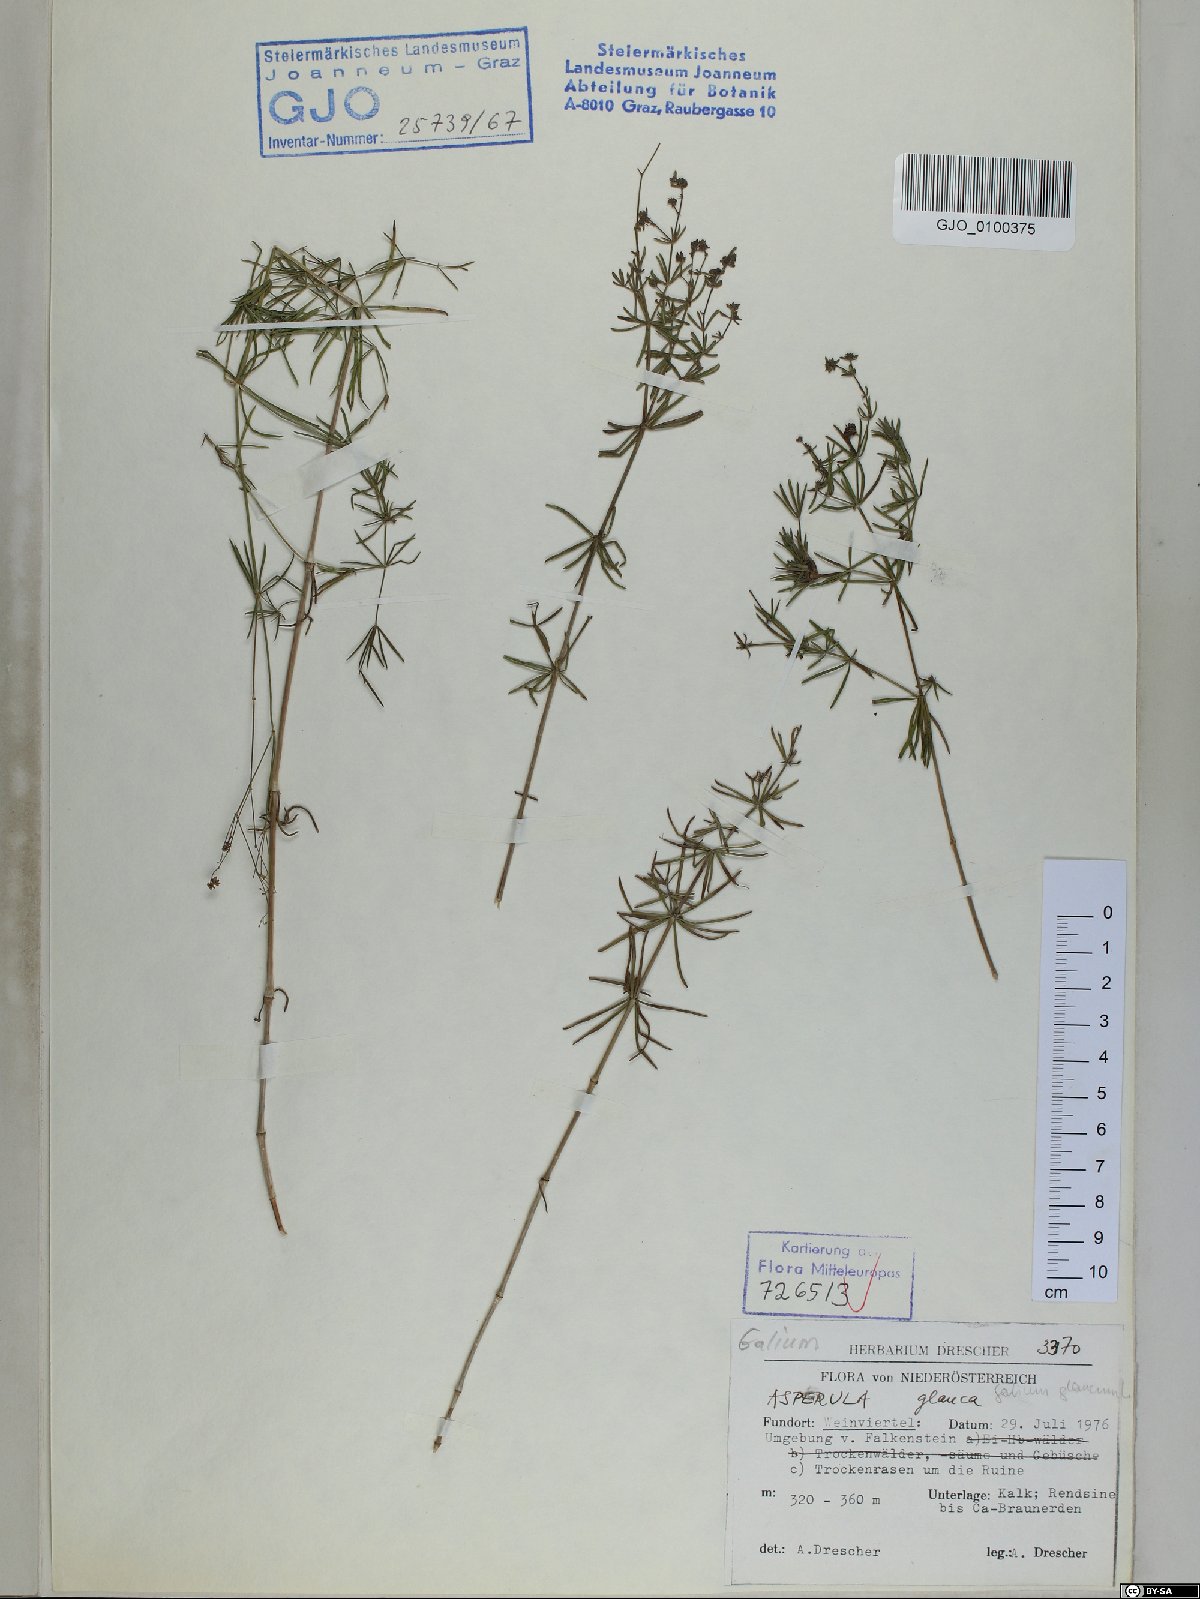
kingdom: Plantae
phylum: Tracheophyta
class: Magnoliopsida
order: Gentianales
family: Rubiaceae
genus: Galium
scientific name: Galium glaucum
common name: Waxy bedstraw
